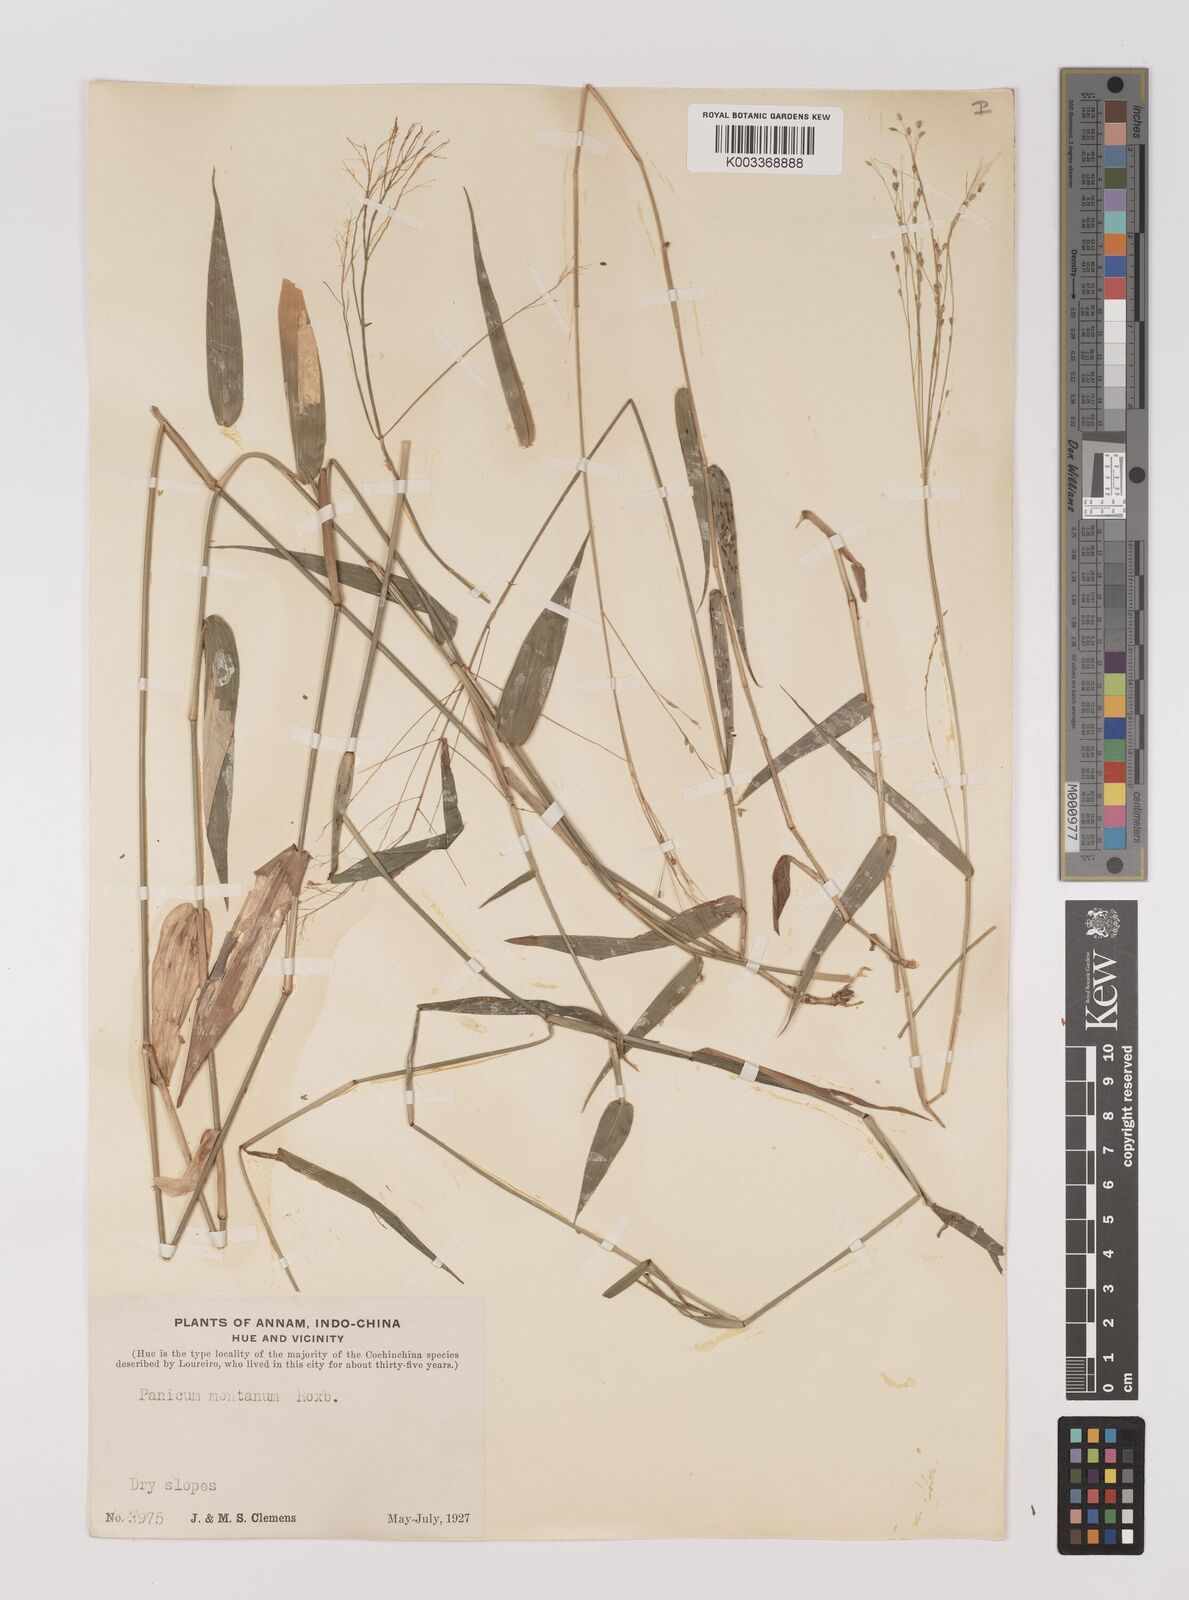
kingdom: Plantae
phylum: Tracheophyta
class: Liliopsida
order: Poales
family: Poaceae
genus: Panicum
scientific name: Panicum notatum
